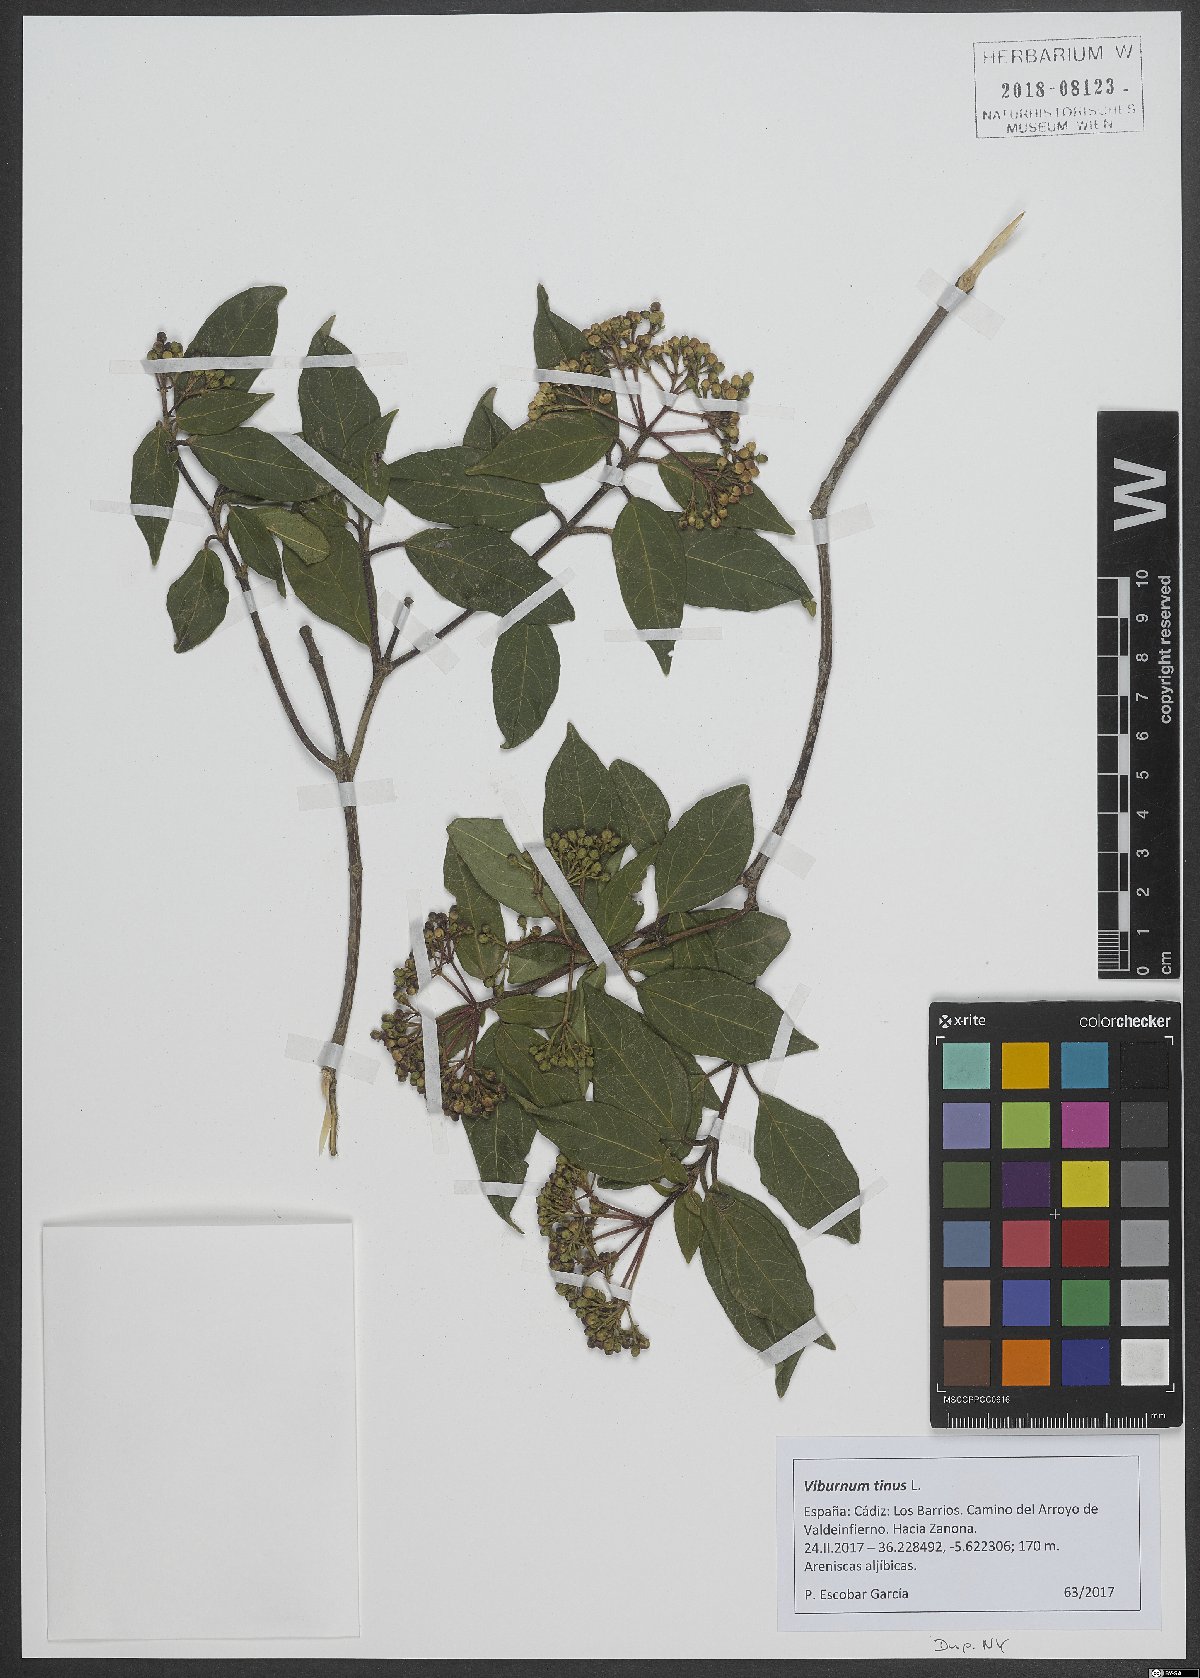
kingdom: Plantae
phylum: Tracheophyta
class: Magnoliopsida
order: Dipsacales
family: Viburnaceae
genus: Viburnum
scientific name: Viburnum tinus
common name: Laurustinus
